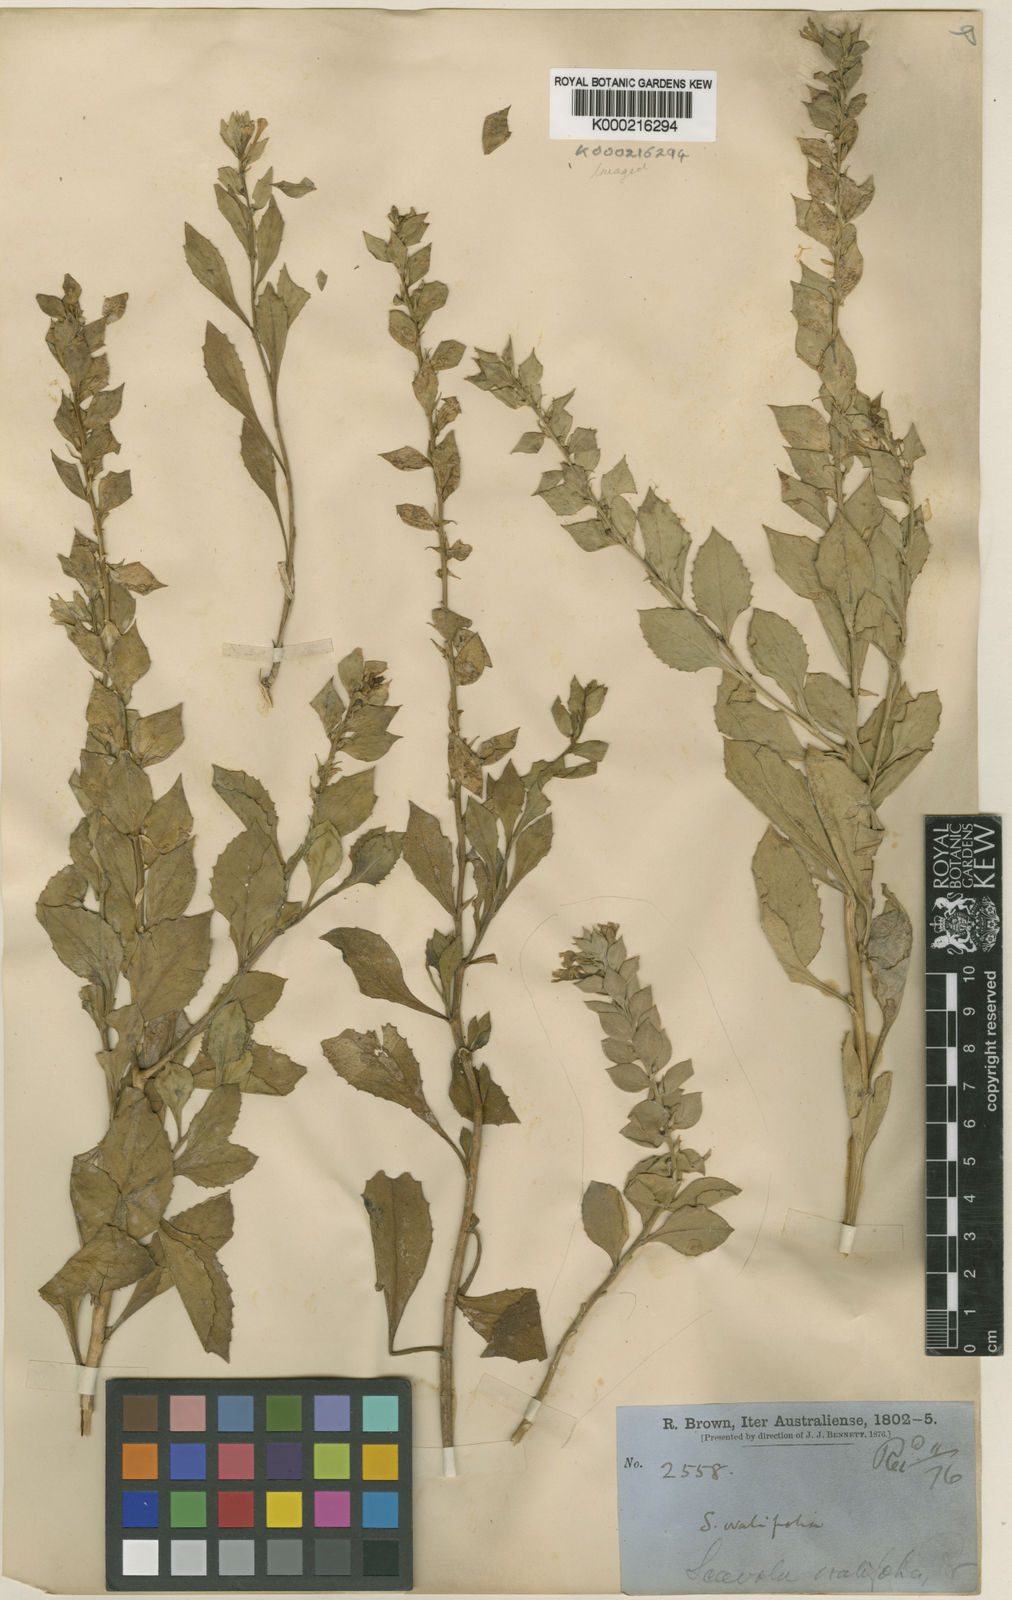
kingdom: Plantae
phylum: Tracheophyta
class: Magnoliopsida
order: Asterales
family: Goodeniaceae
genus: Scaevola
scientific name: Scaevola ovalifolia
